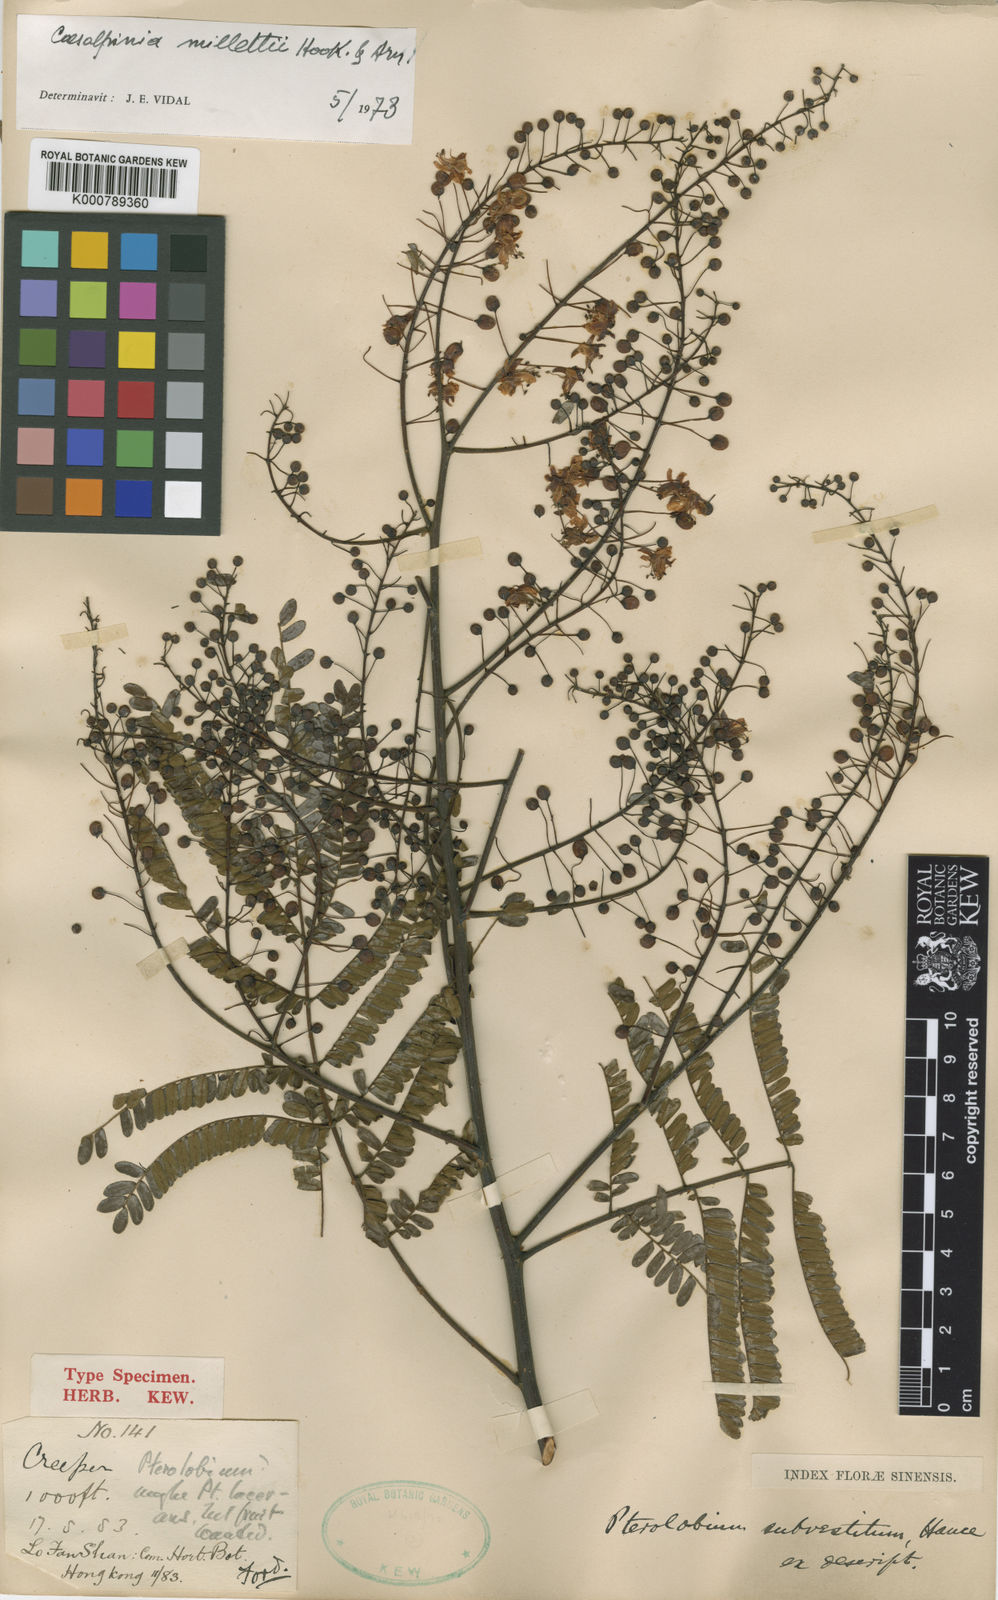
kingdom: Plantae
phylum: Tracheophyta
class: Magnoliopsida
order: Fabales
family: Fabaceae
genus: Biancaea
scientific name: Biancaea millettii
